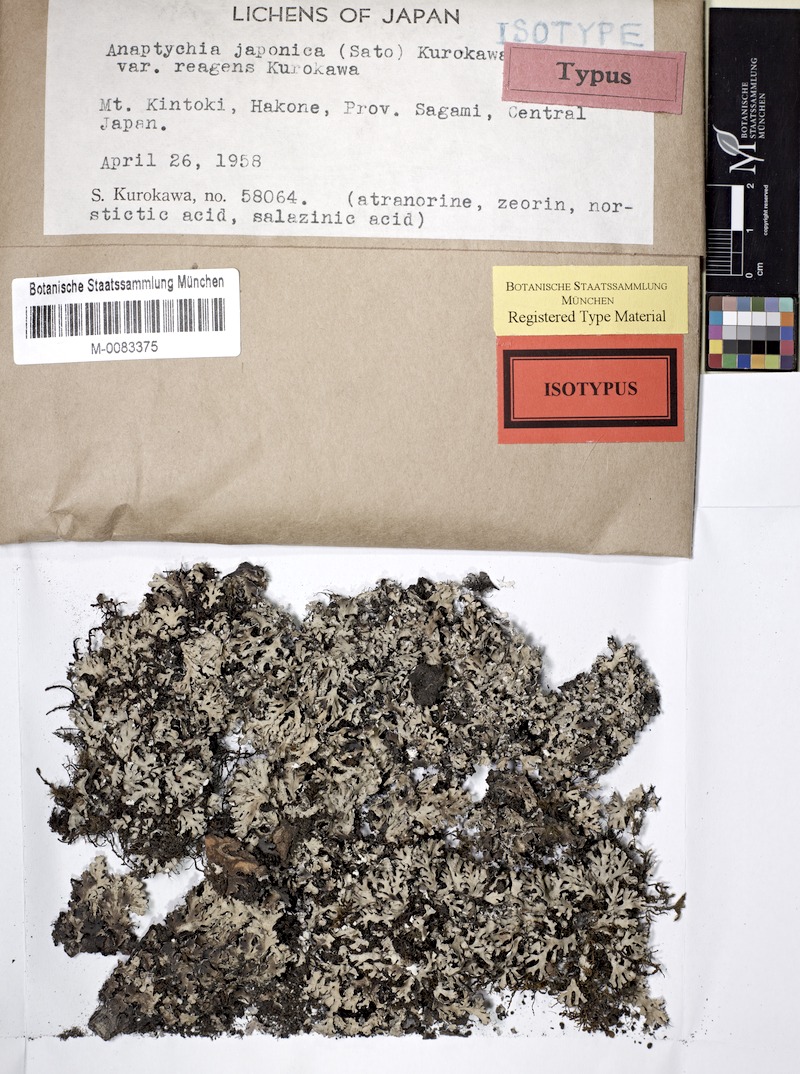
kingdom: Fungi
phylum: Ascomycota
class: Lecanoromycetes
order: Caliciales
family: Physciaceae
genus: Polyblastidium
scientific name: Polyblastidium propaguliferum
